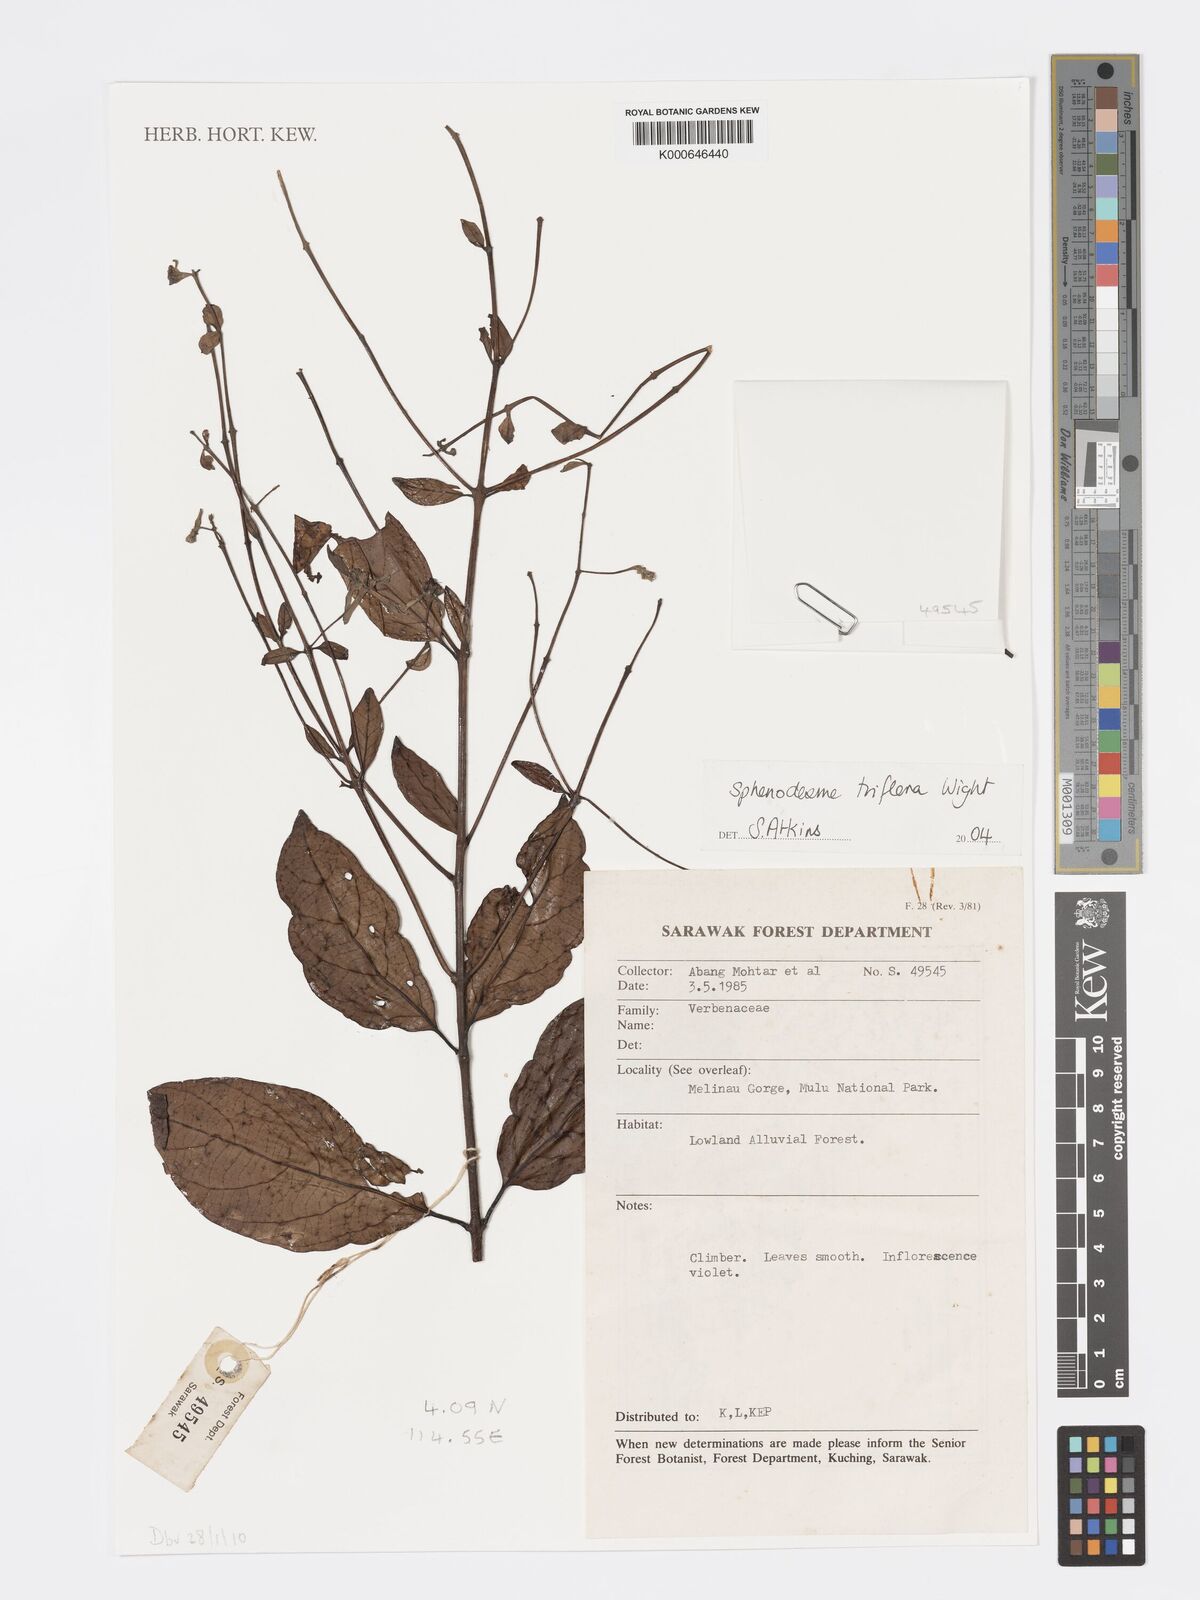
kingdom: Plantae
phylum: Tracheophyta
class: Magnoliopsida
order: Lamiales
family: Lamiaceae
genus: Sphenodesme
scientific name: Sphenodesme triflora
